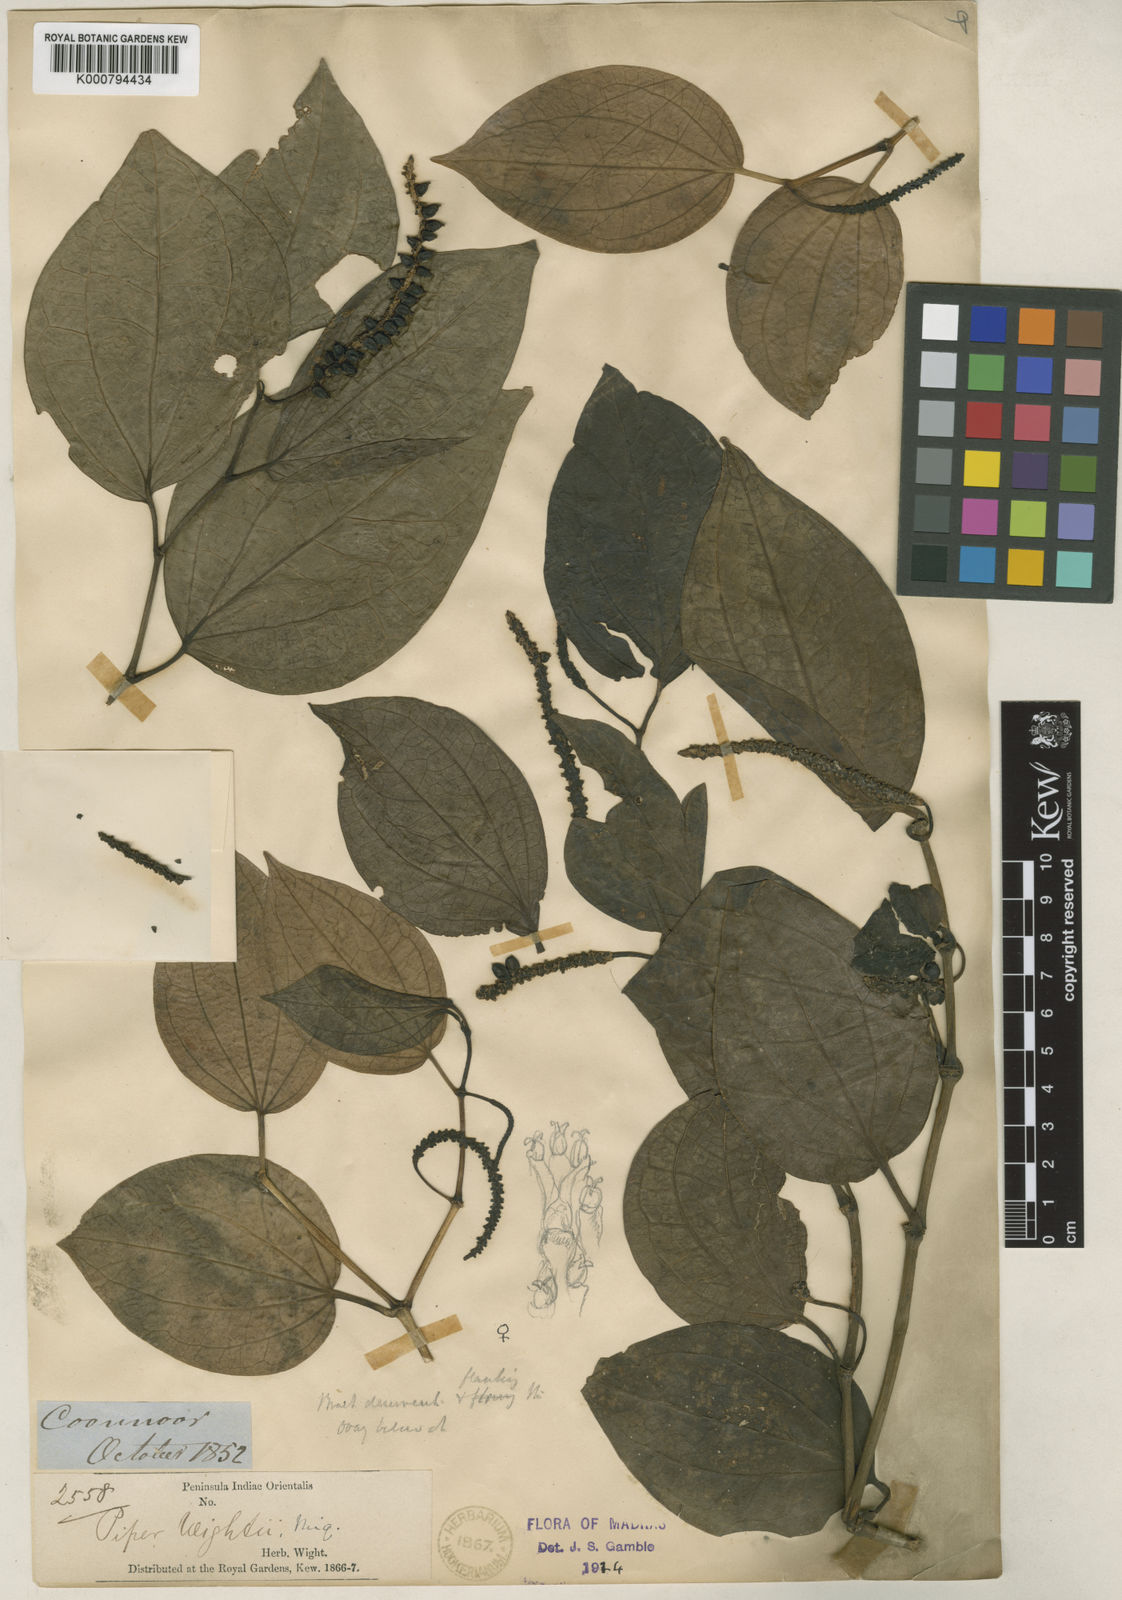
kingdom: Plantae
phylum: Tracheophyta
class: Magnoliopsida
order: Piperales
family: Piperaceae
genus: Piper
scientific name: Piper wightii
